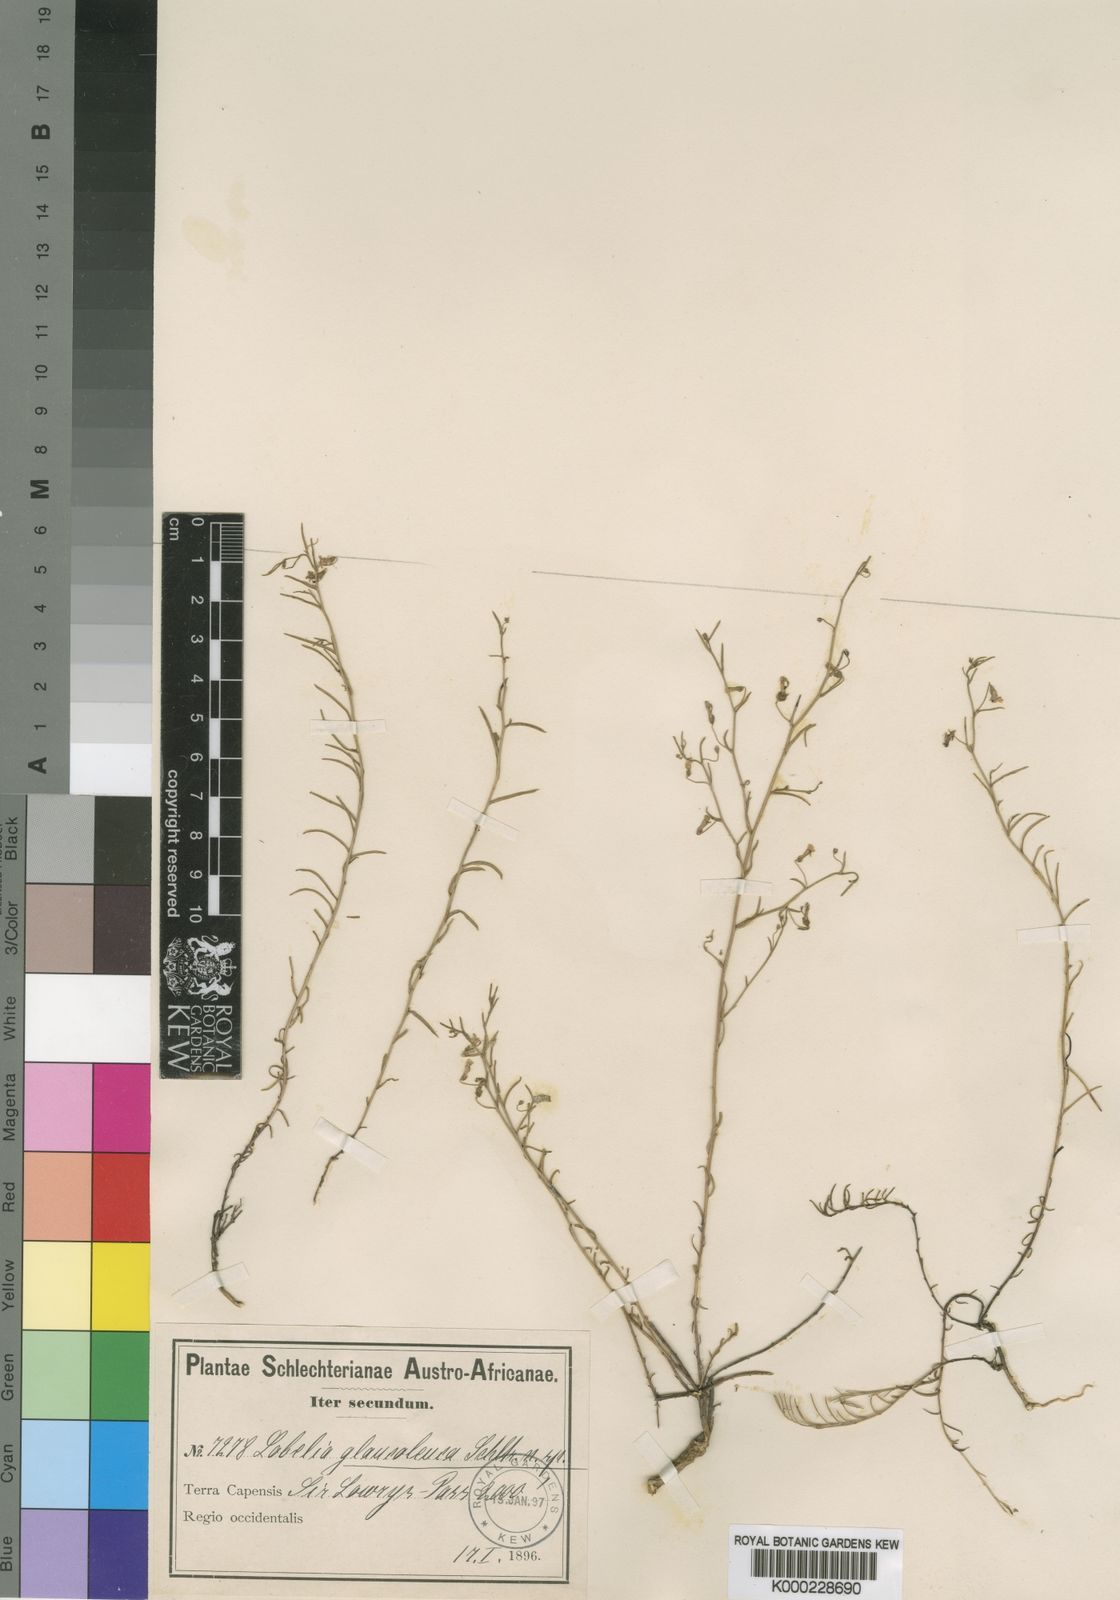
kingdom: Plantae
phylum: Tracheophyta
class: Magnoliopsida
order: Asterales
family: Campanulaceae
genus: Lobelia
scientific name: Lobelia setacea
